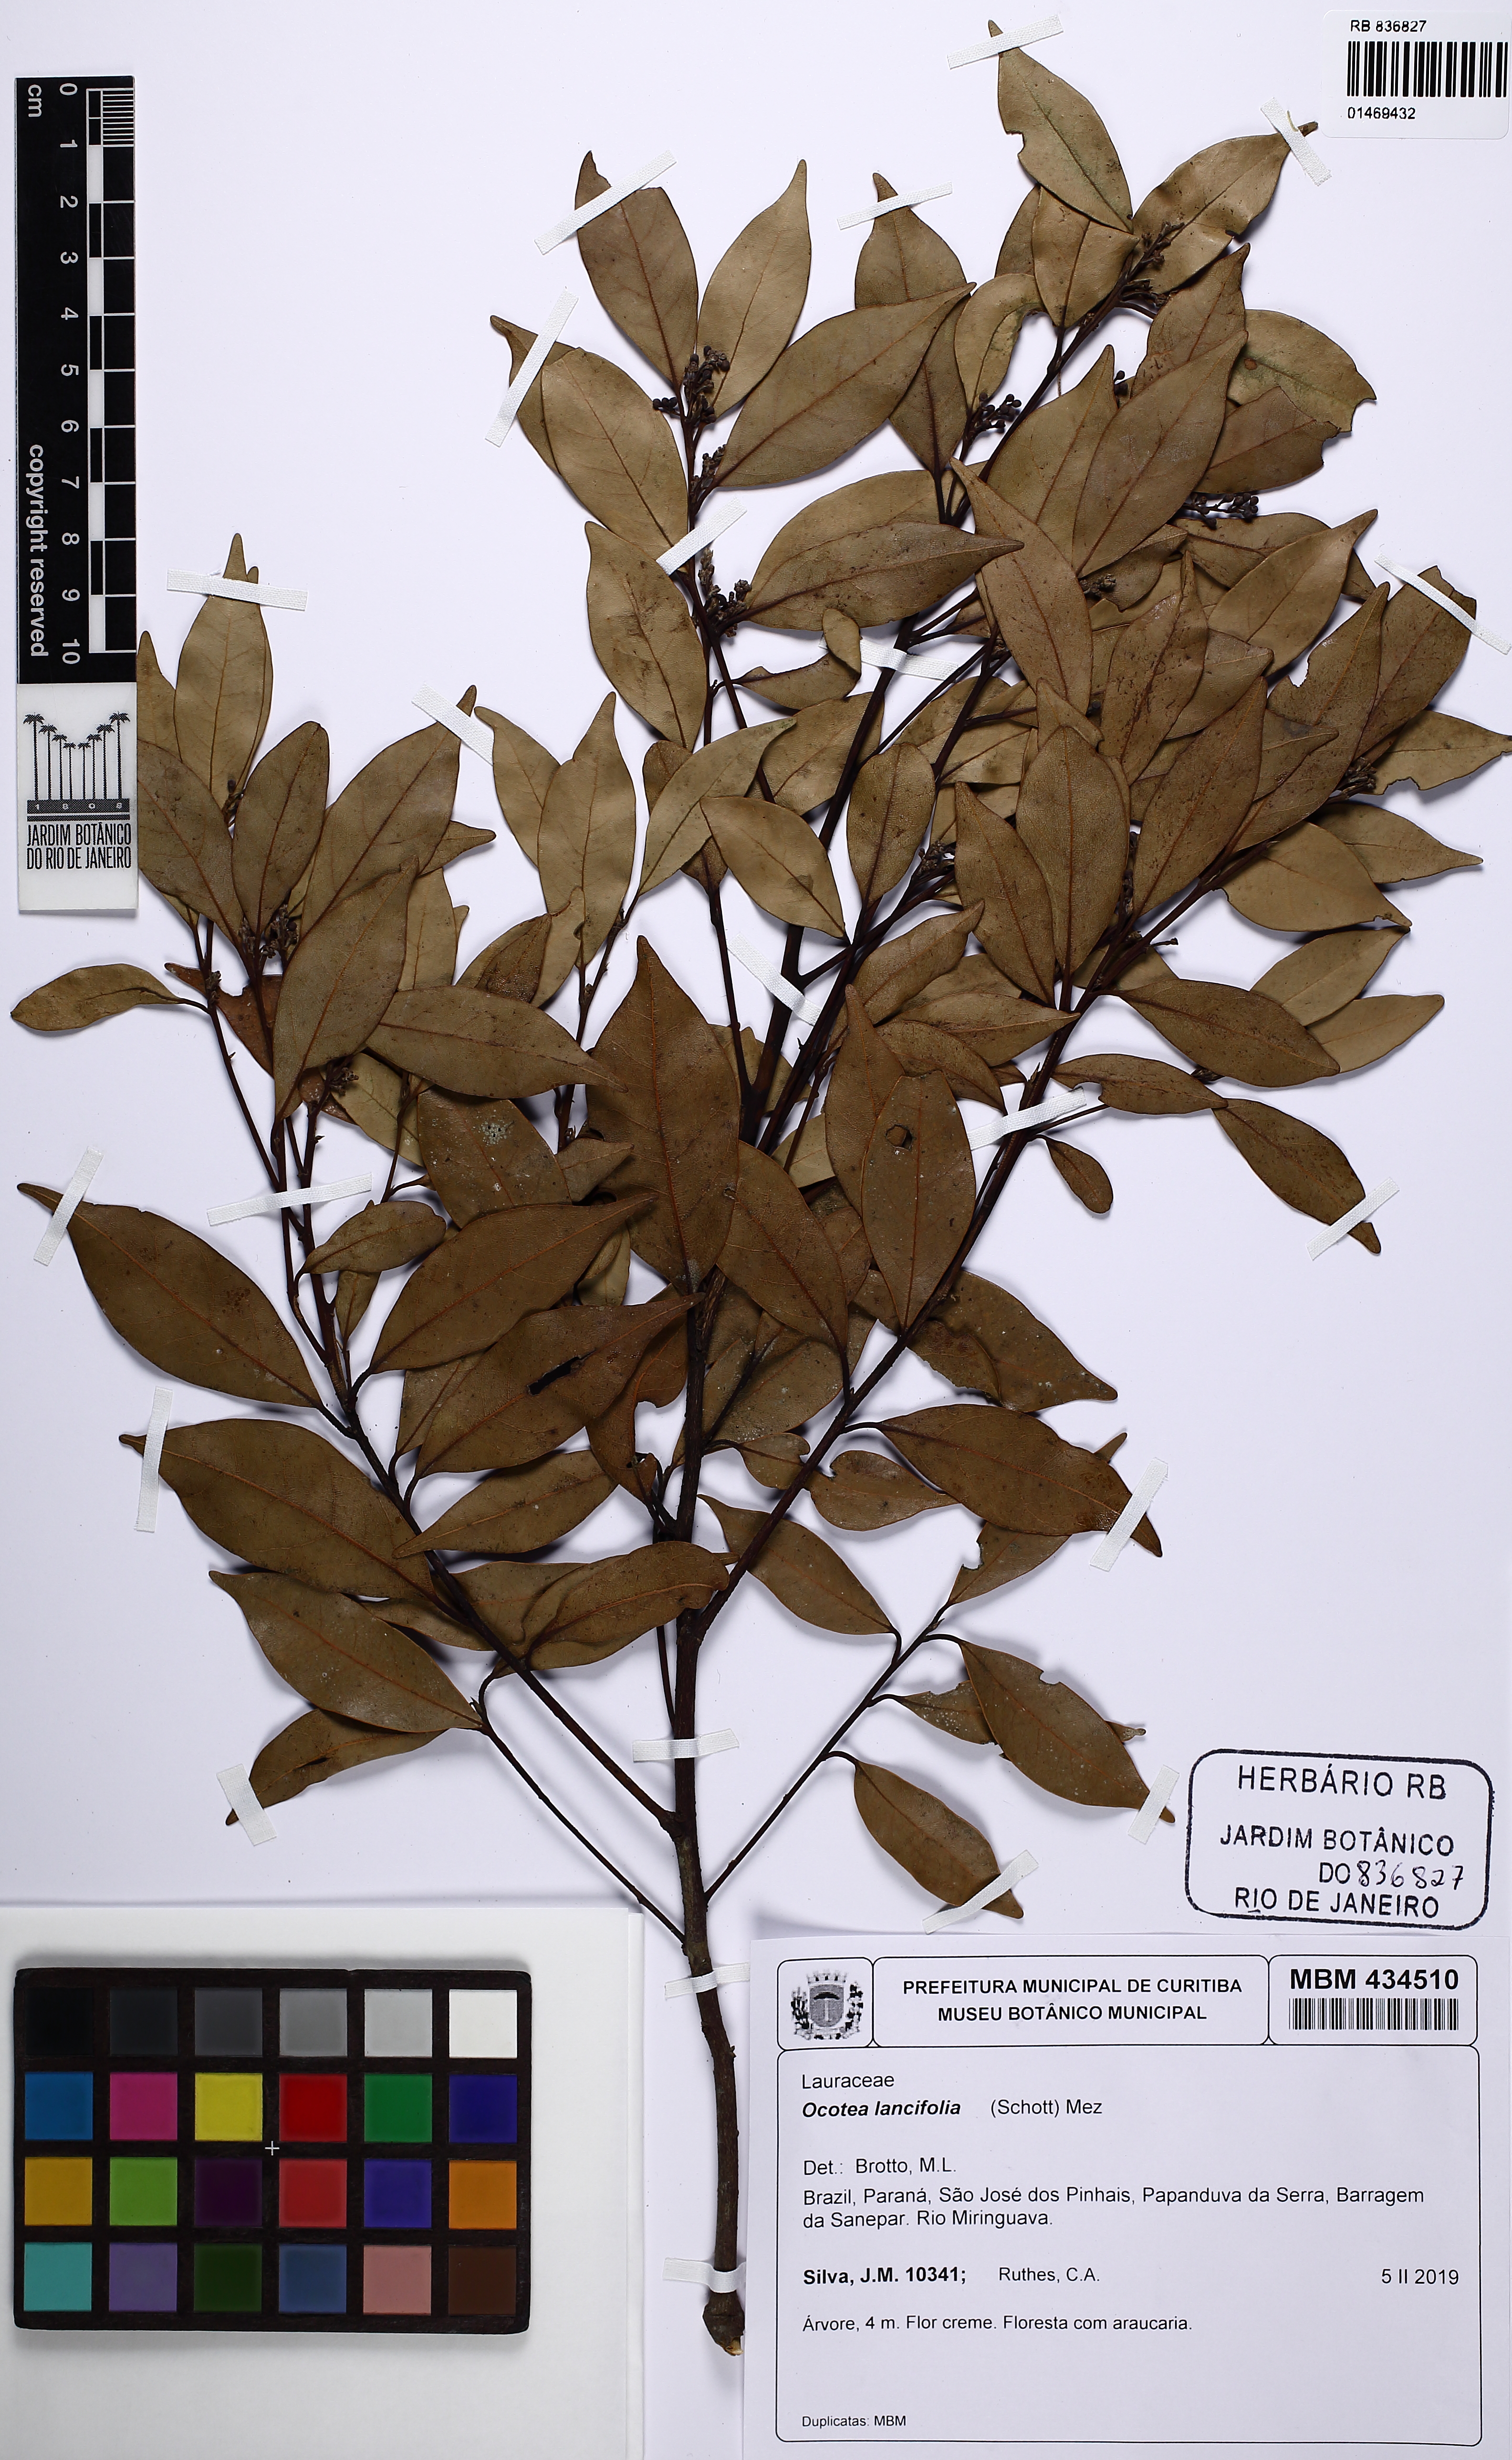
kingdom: Plantae
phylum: Tracheophyta
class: Magnoliopsida
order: Laurales
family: Lauraceae
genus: Ocotea
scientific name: Ocotea lancifolia
